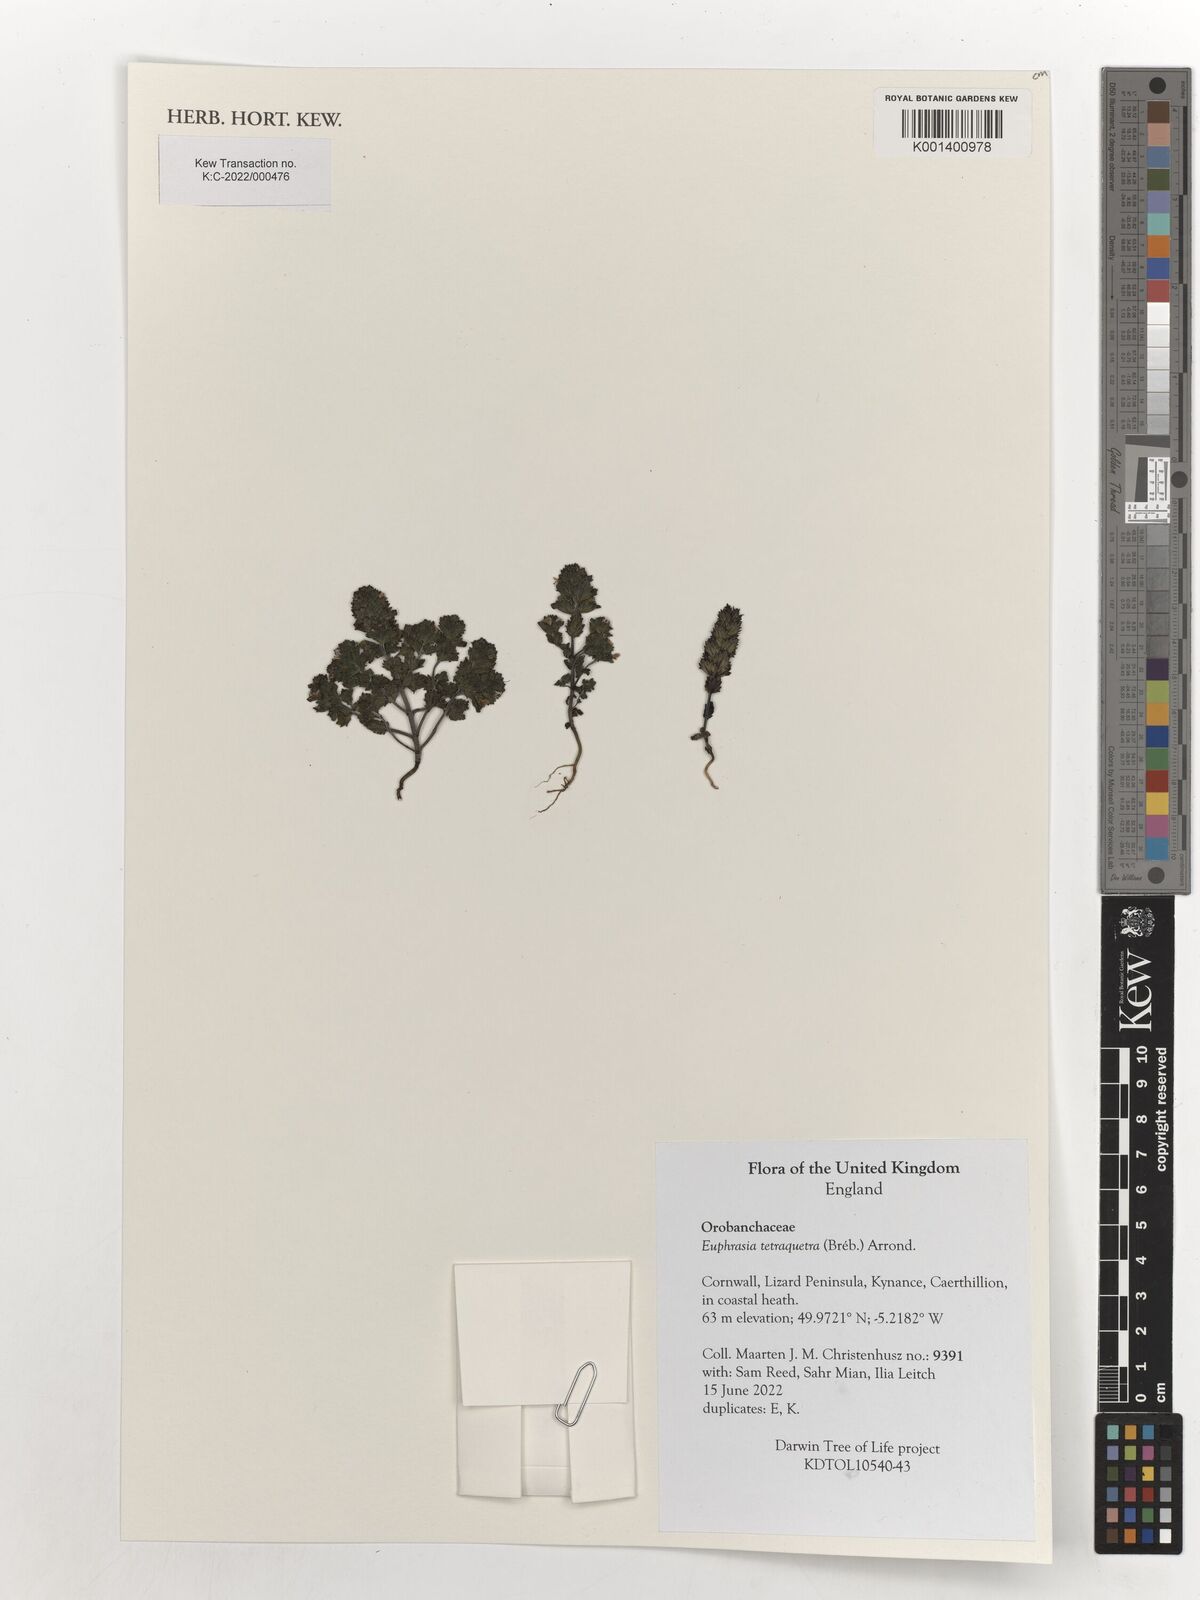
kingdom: Plantae
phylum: Tracheophyta
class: Magnoliopsida
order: Lamiales
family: Orobanchaceae
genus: Euphrasia
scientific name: Euphrasia tetraquetra
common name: Maritime eyebright
